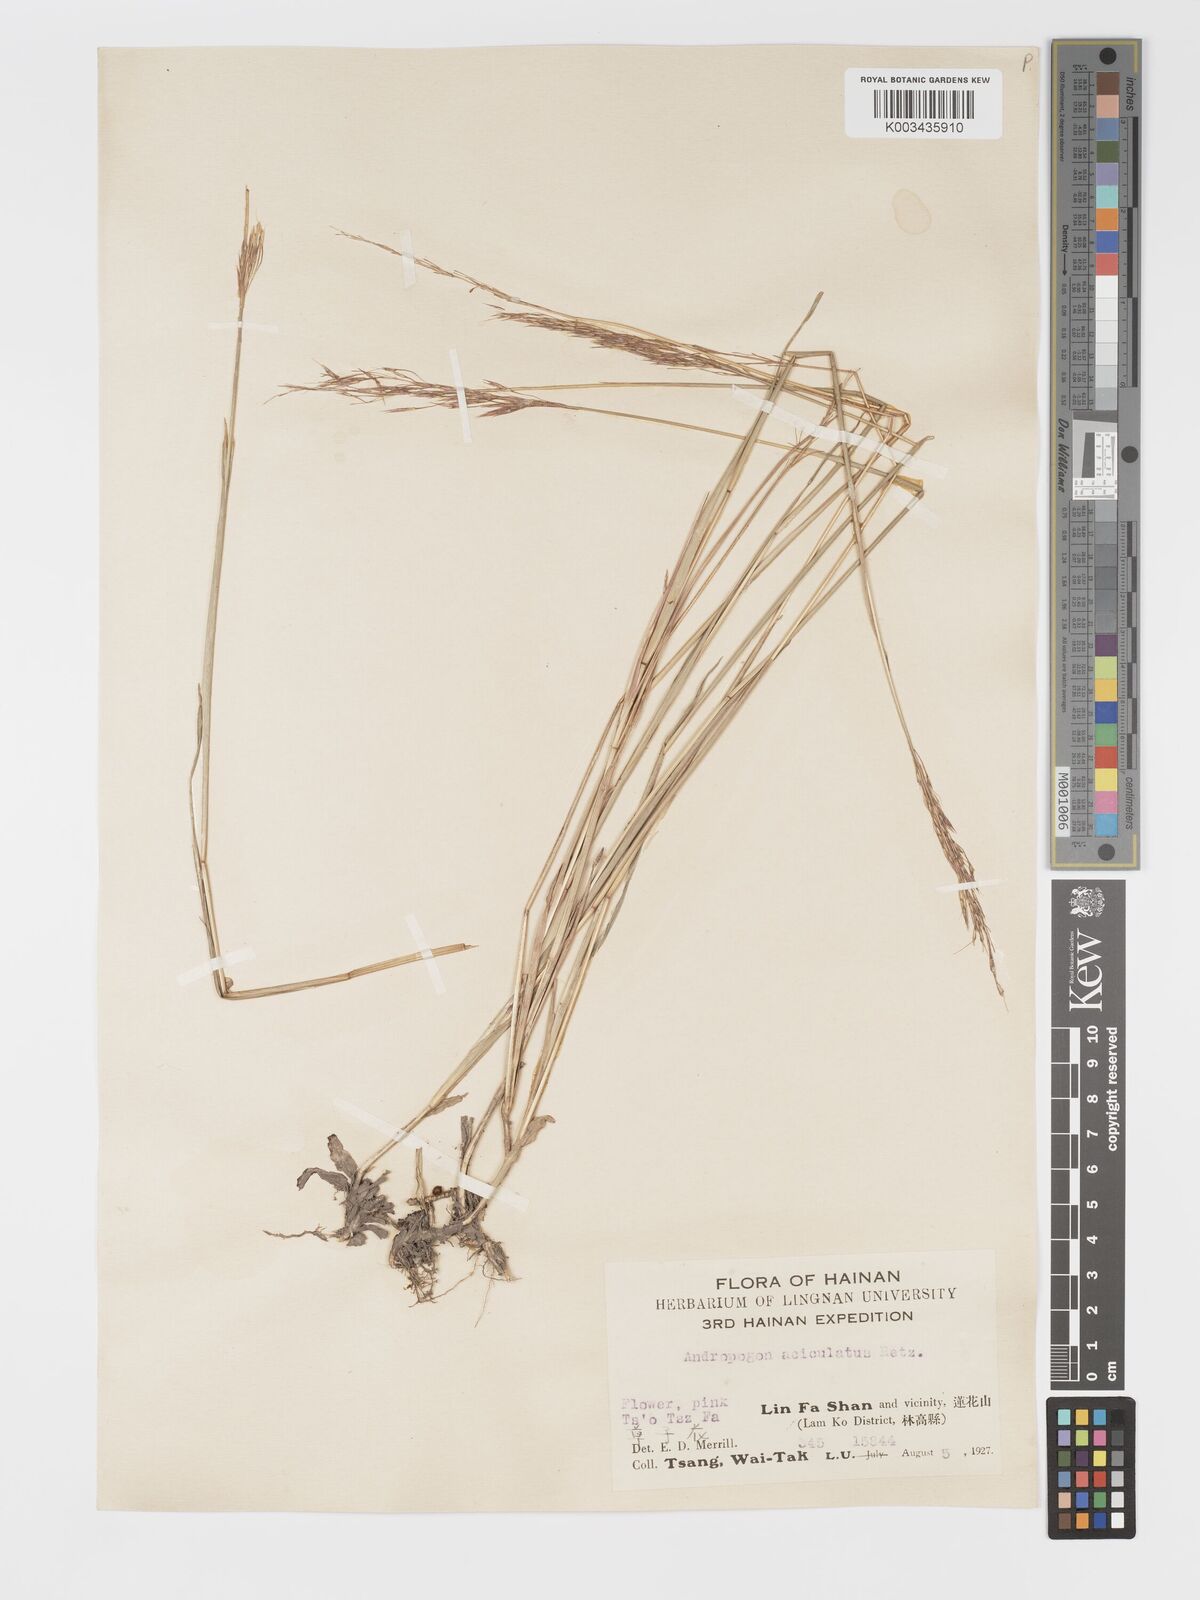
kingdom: Plantae
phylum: Tracheophyta
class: Liliopsida
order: Poales
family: Poaceae
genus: Chrysopogon
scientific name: Chrysopogon aciculatus
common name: Pilipiliula
